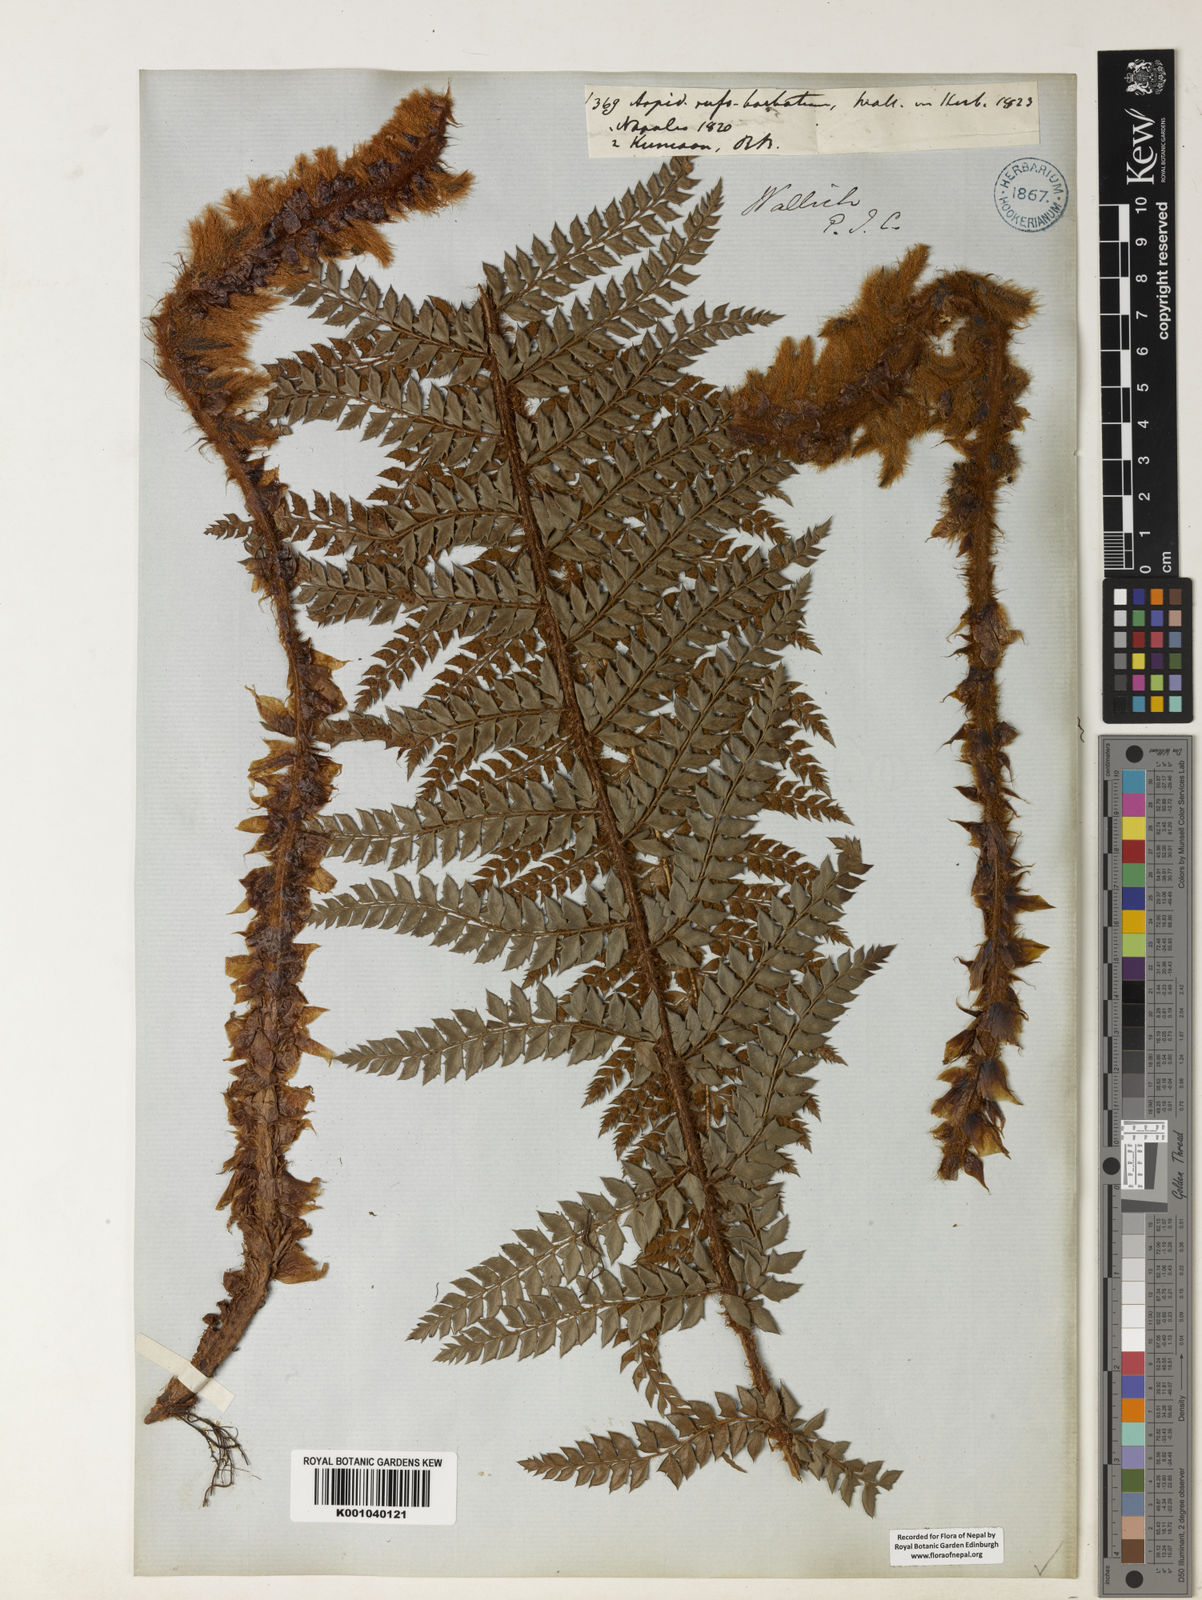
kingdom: Plantae
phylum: Tracheophyta
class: Polypodiopsida
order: Polypodiales
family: Dryopteridaceae
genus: Polystichum
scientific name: Polystichum
